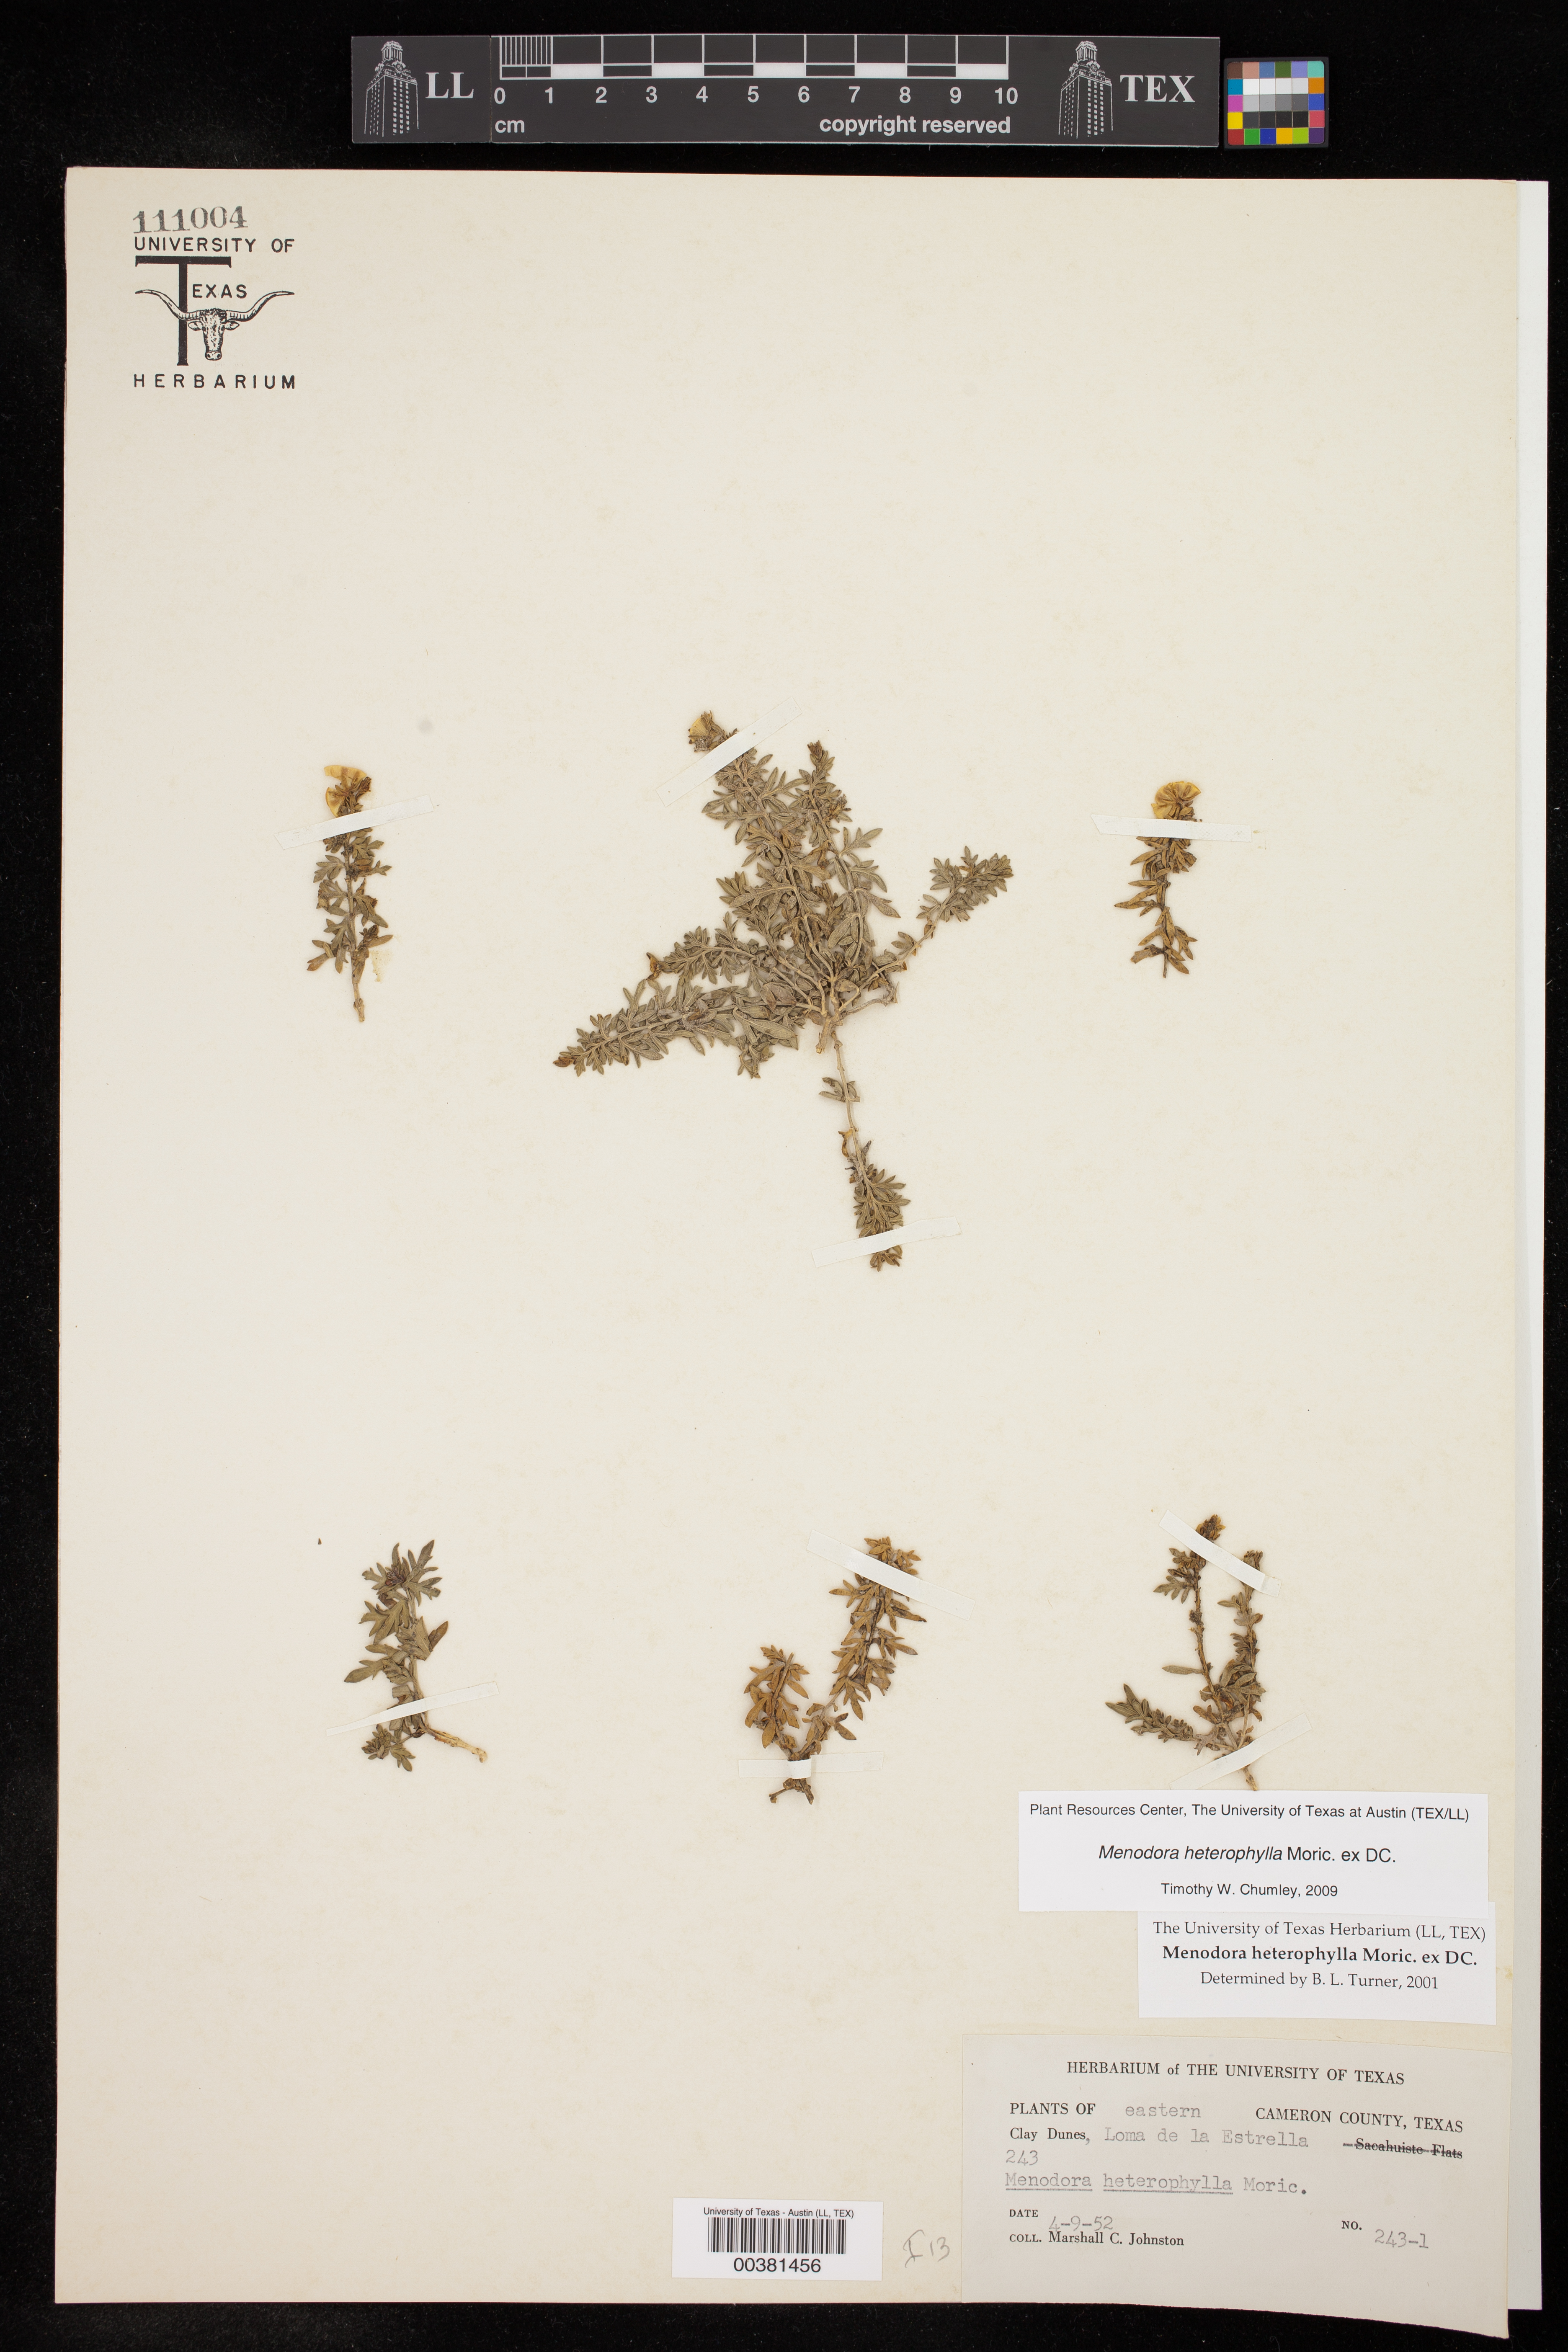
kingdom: Plantae
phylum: Tracheophyta
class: Magnoliopsida
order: Lamiales
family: Oleaceae
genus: Menodora
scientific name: Menodora heterophylla
